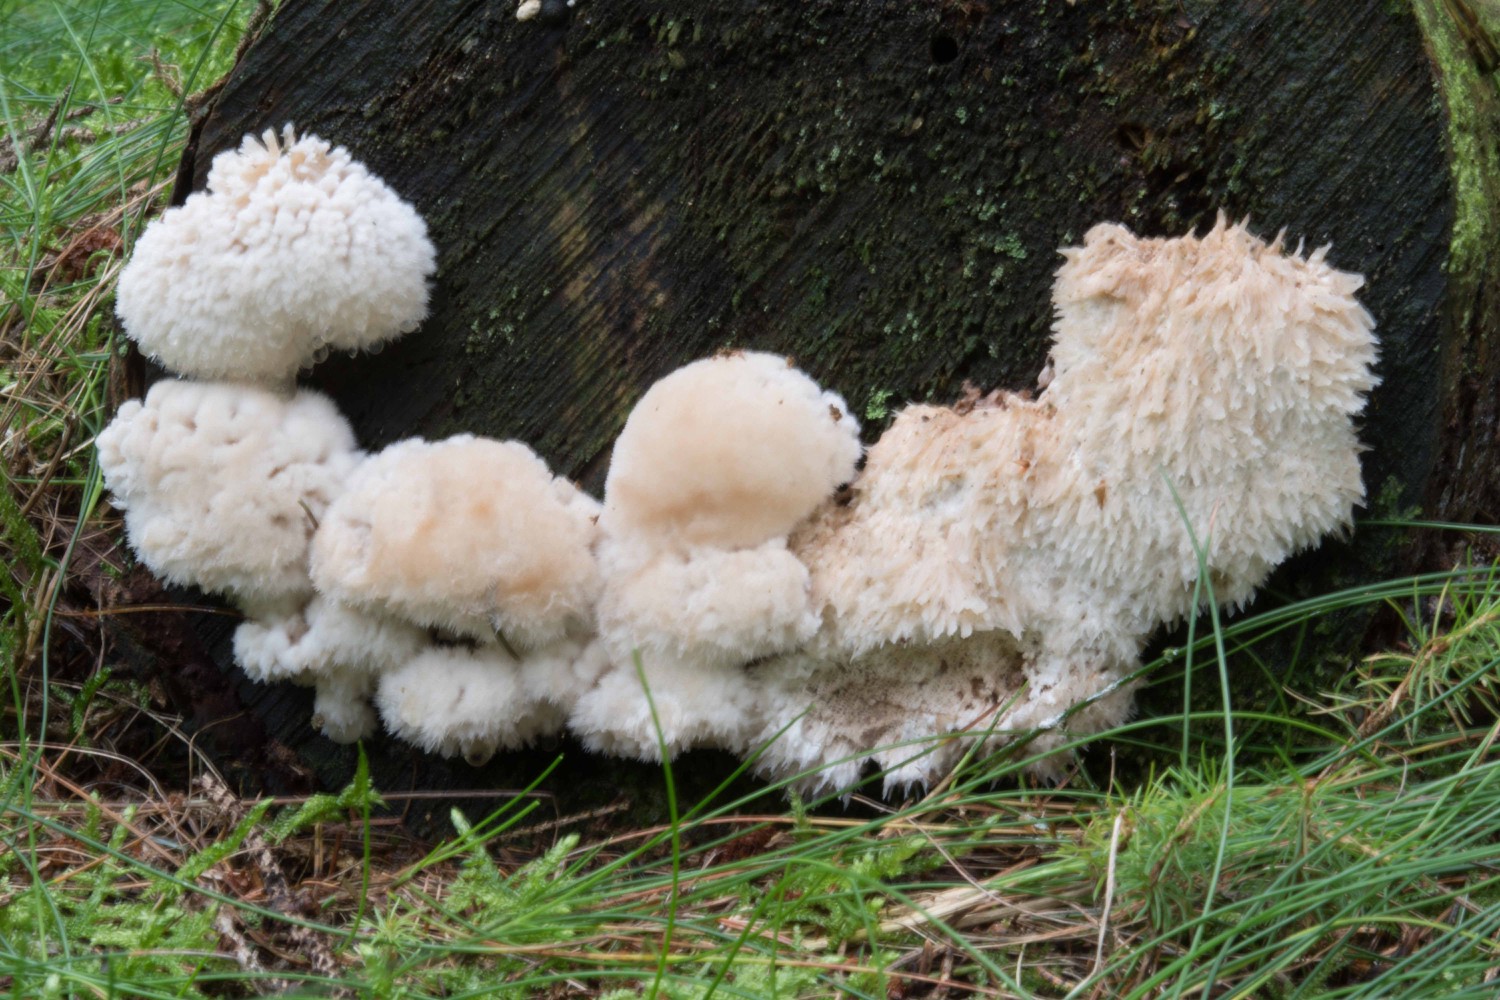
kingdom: Fungi
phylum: Basidiomycota
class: Agaricomycetes
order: Polyporales
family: Dacryobolaceae
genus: Postia
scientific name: Postia ptychogaster
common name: støvende kødporesvamp
